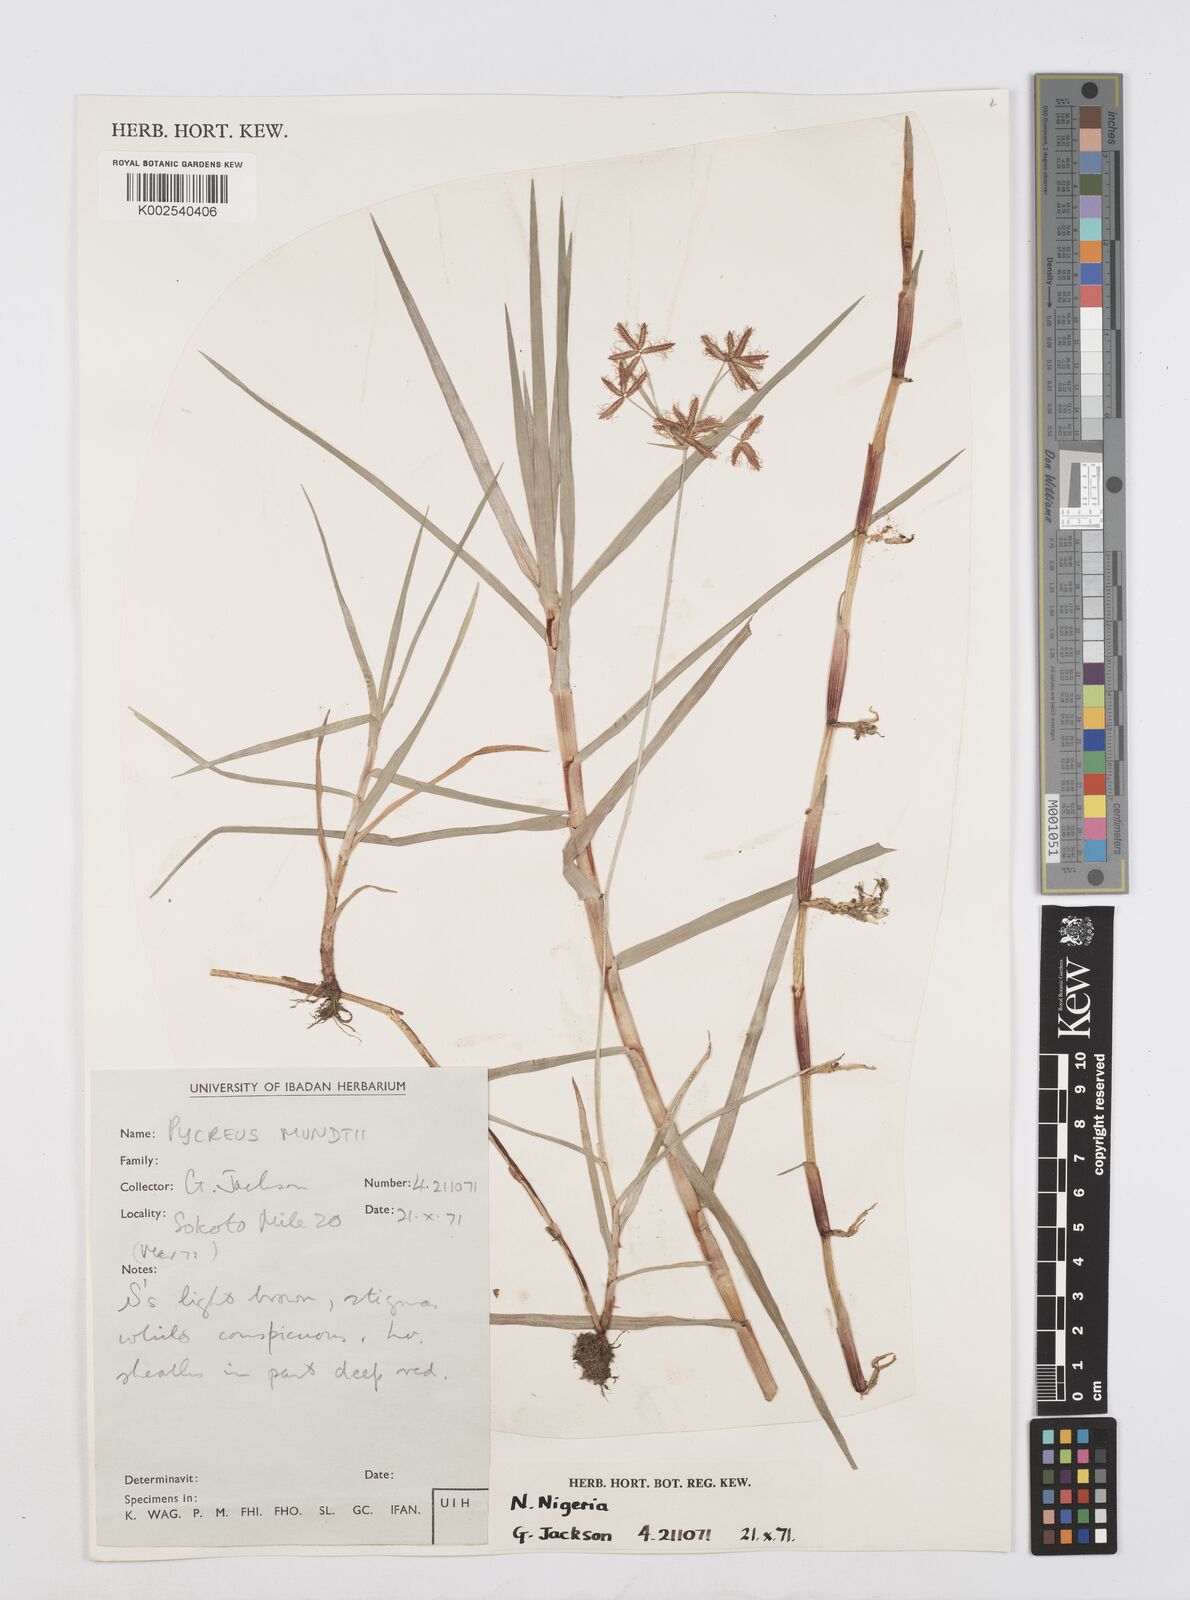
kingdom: Plantae
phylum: Tracheophyta
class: Liliopsida
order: Poales
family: Cyperaceae
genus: Cyperus
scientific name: Cyperus mundii
